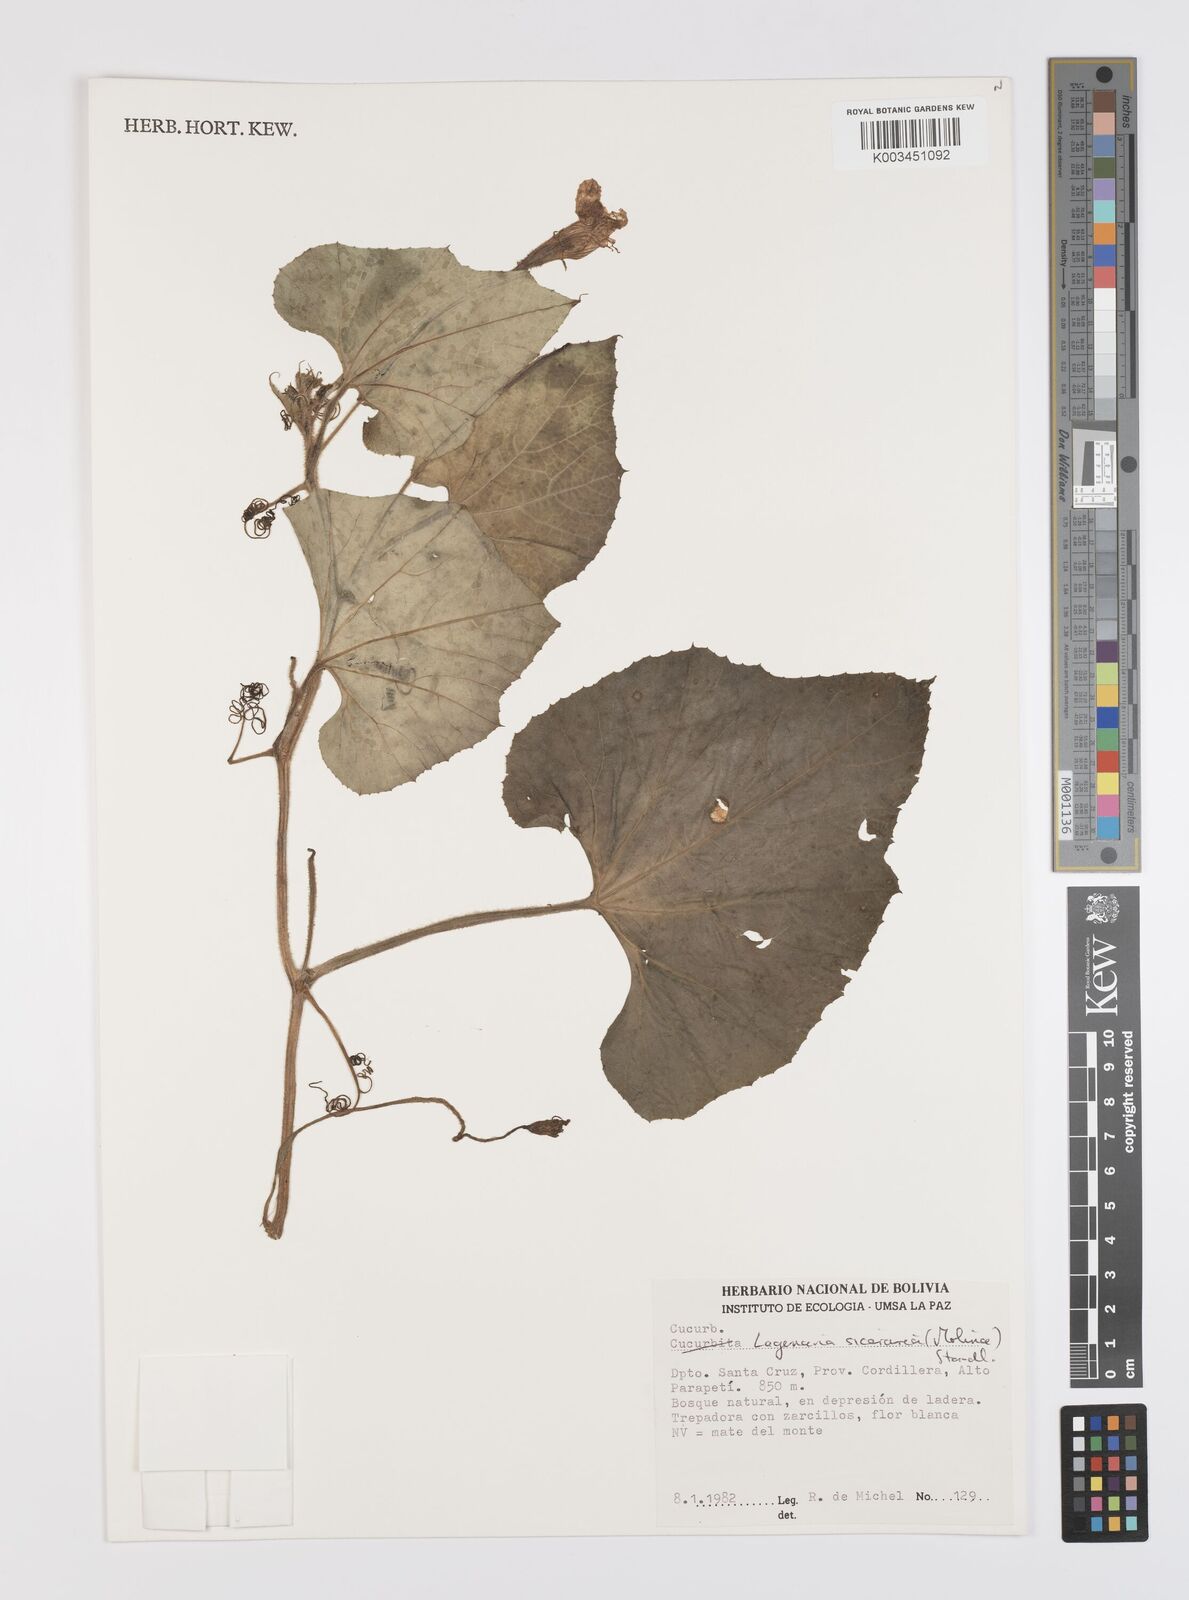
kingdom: Plantae
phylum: Tracheophyta
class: Magnoliopsida
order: Cucurbitales
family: Cucurbitaceae
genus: Lagenaria
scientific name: Lagenaria siceraria
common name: Bottle gourd
